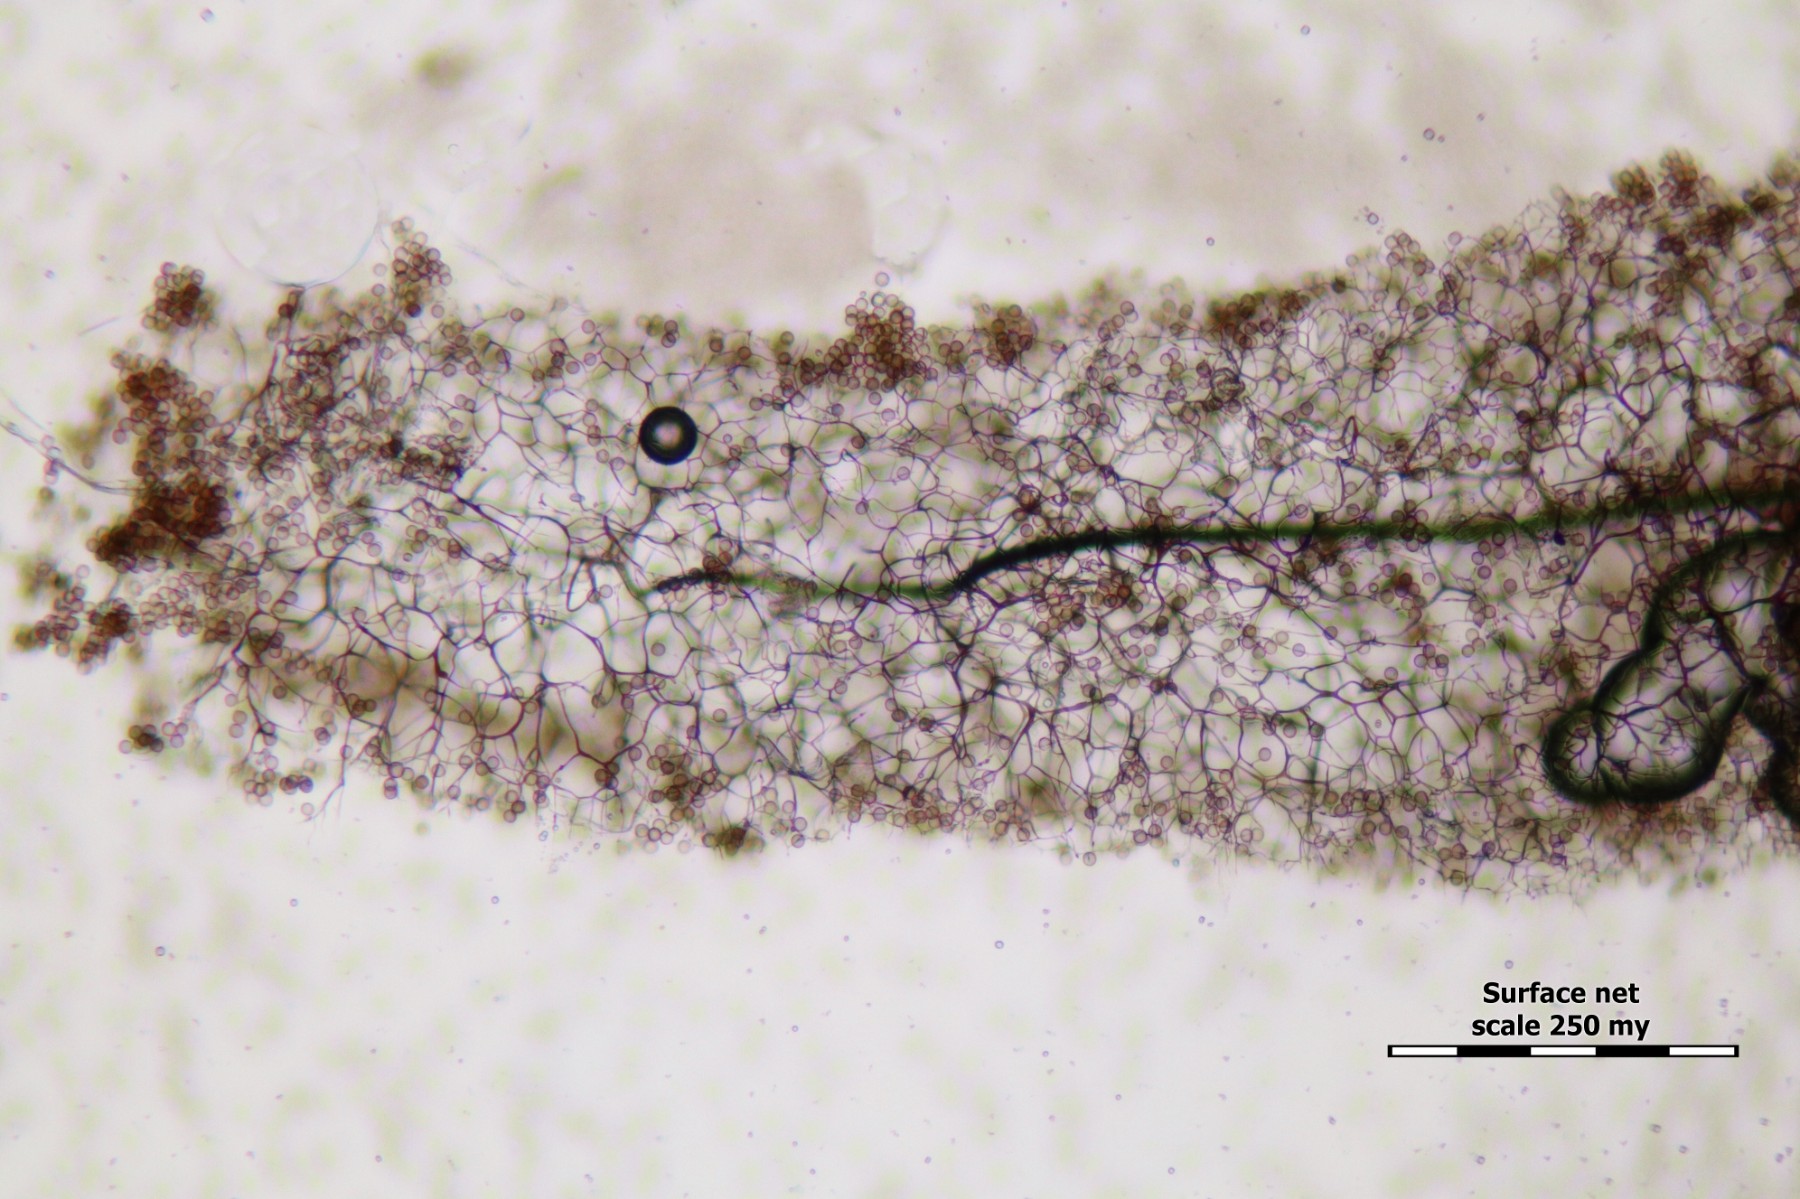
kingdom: Protozoa
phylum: Mycetozoa
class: Myxomycetes
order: Stemonitidales
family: Stemonitidaceae
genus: Stemonitis
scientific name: Stemonitis flavogenita
